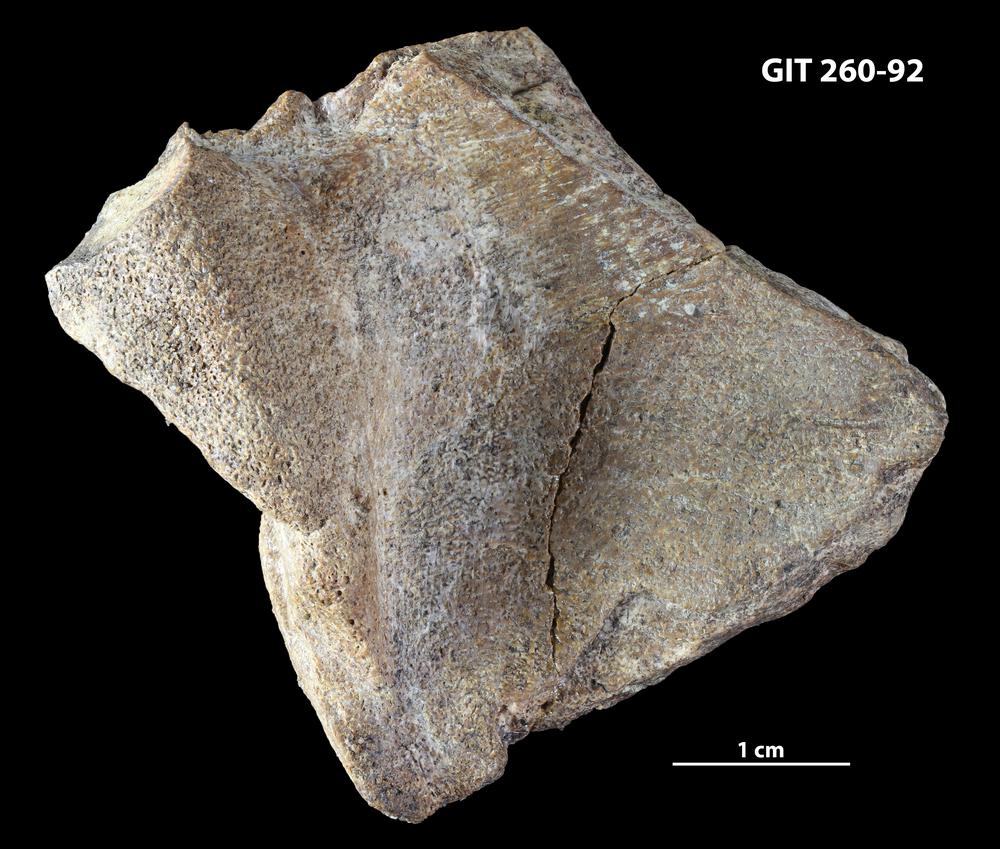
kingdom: Animalia
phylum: Chordata
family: Homostiidae
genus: Homostius
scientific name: Homostius
